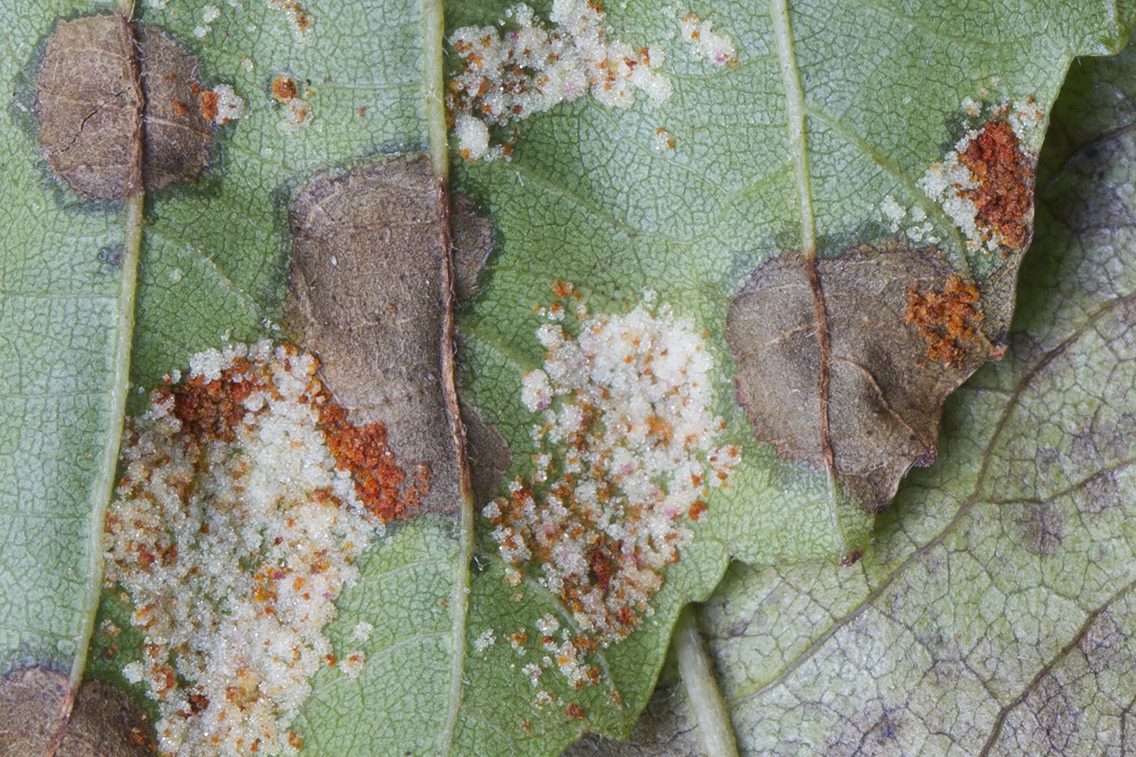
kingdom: Fungi
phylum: Basidiomycota
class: Pucciniomycetes
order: Pucciniales
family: Pucciniastraceae
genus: Melampsoridium
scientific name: Melampsoridium hiratsukanum
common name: Alder rust
